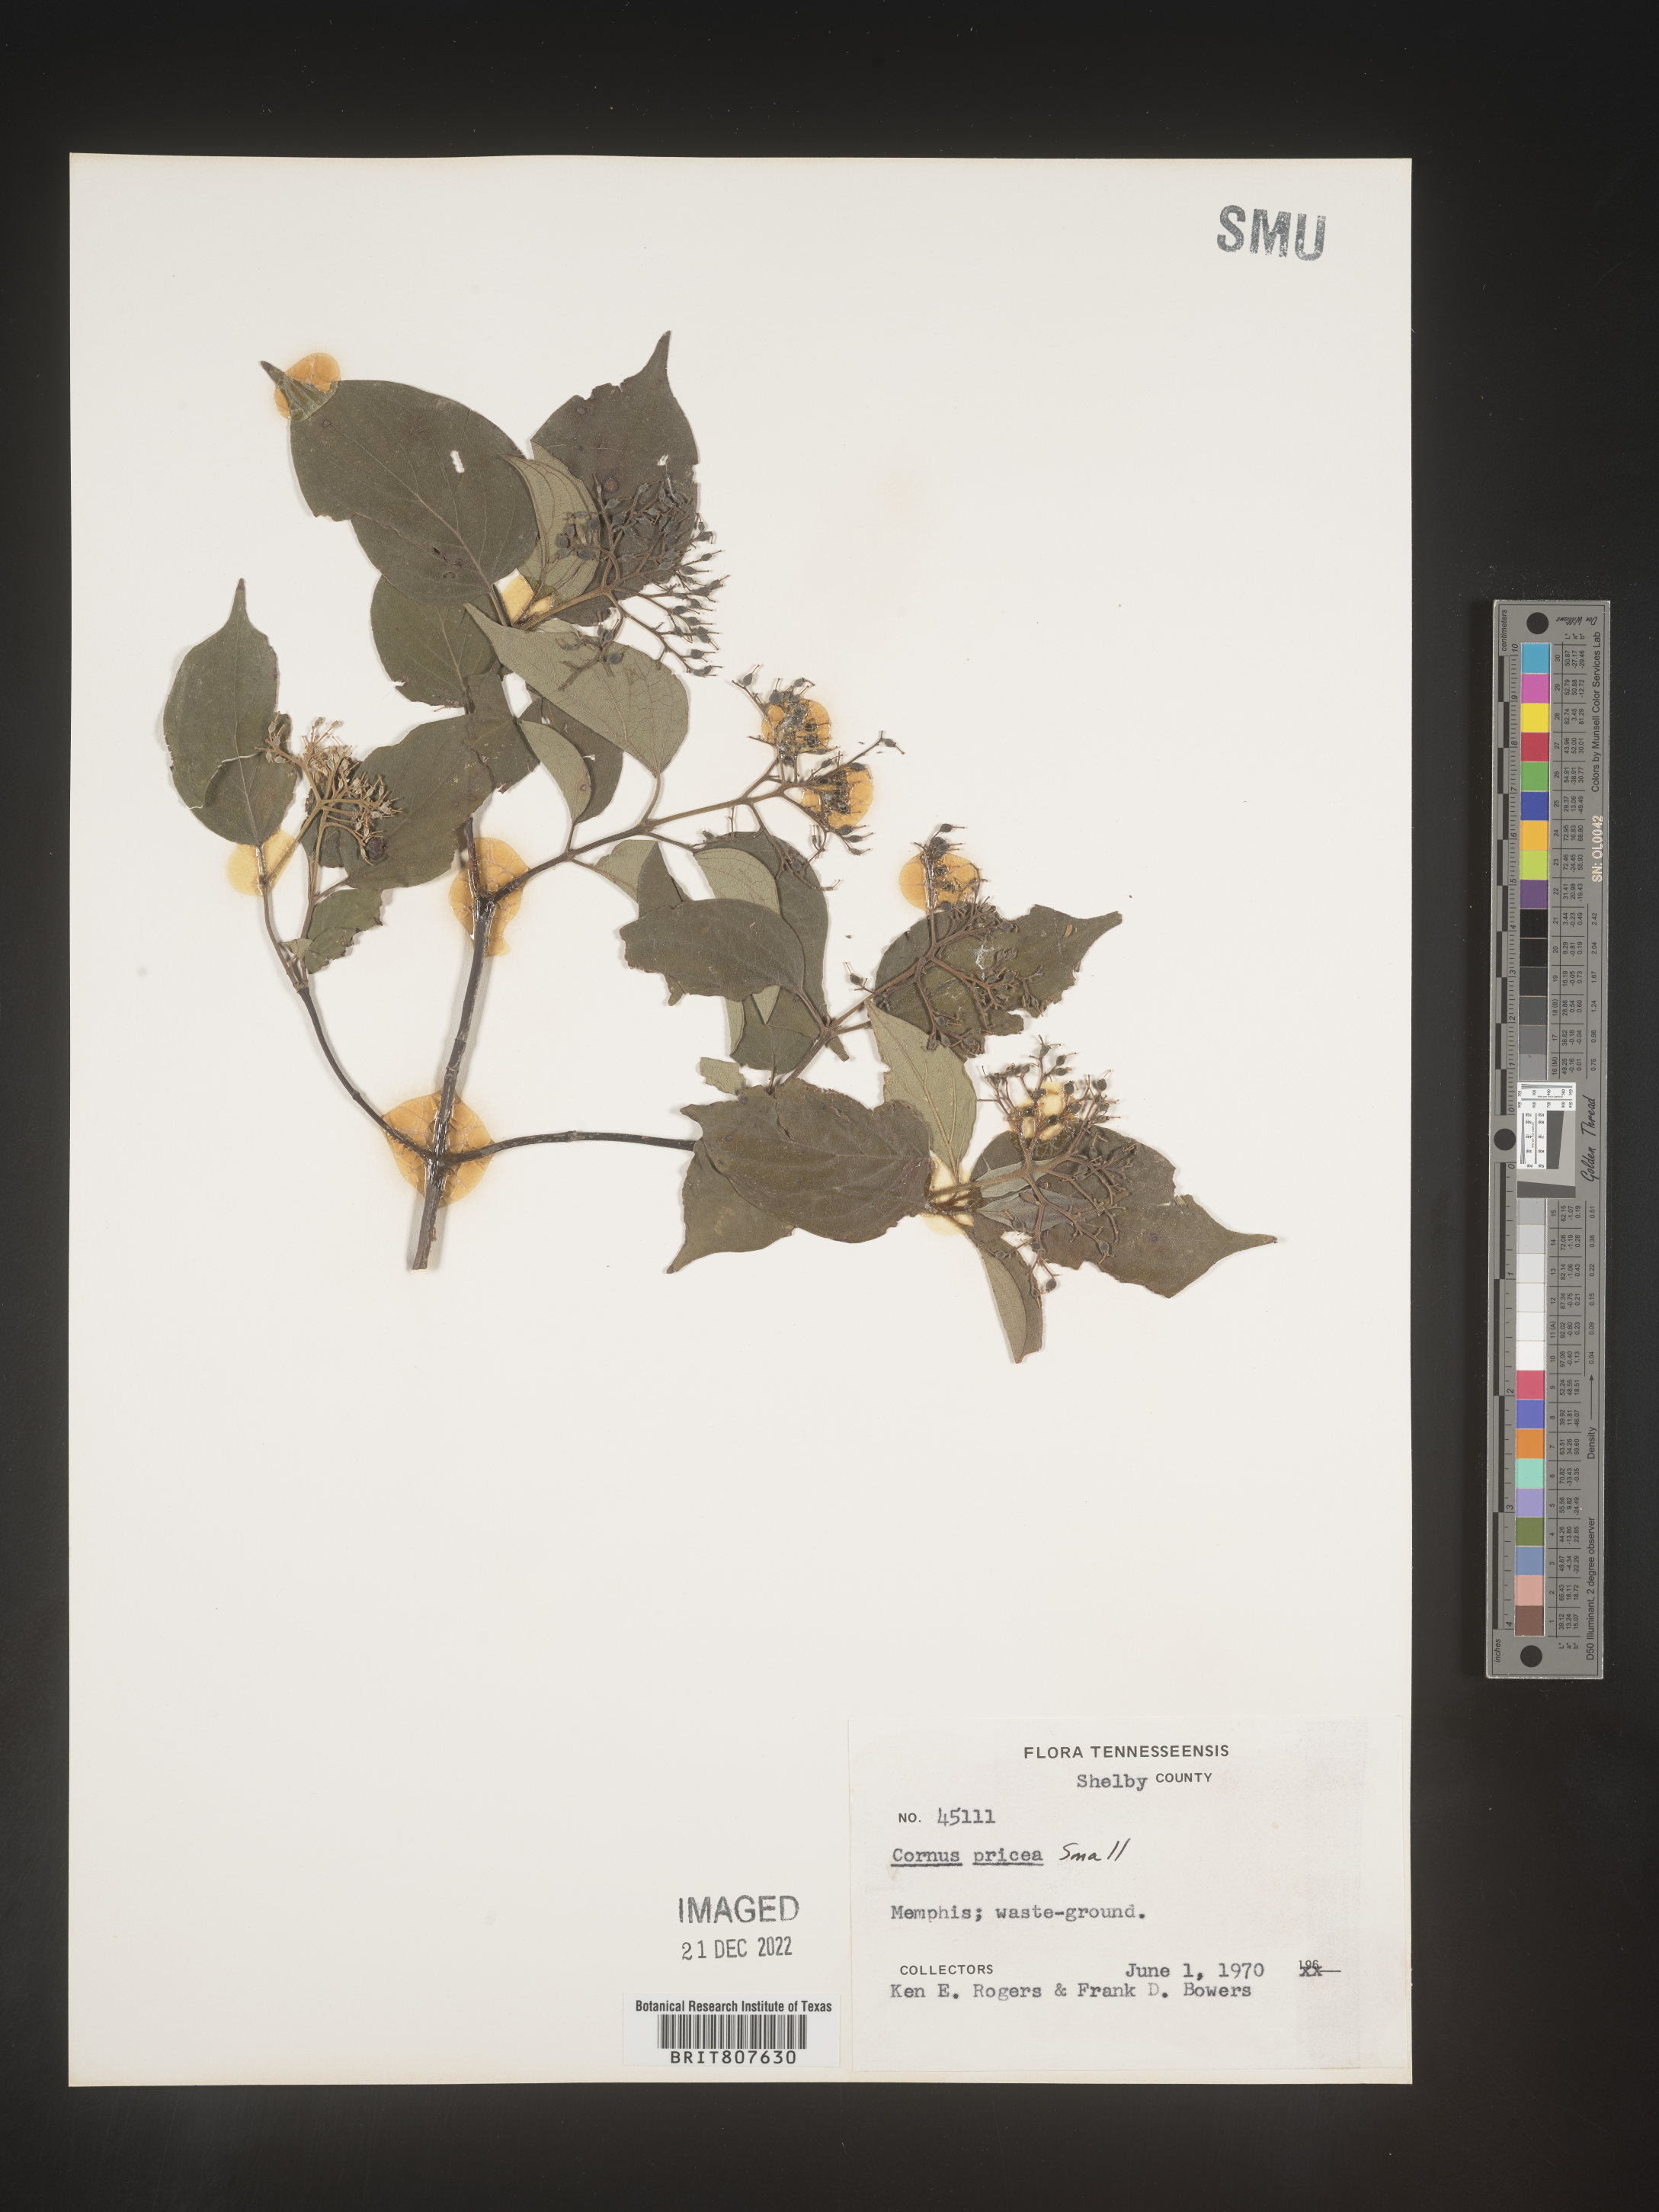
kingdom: Plantae
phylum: Tracheophyta
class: Magnoliopsida
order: Cornales
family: Cornaceae
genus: Cornus
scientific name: Cornus
